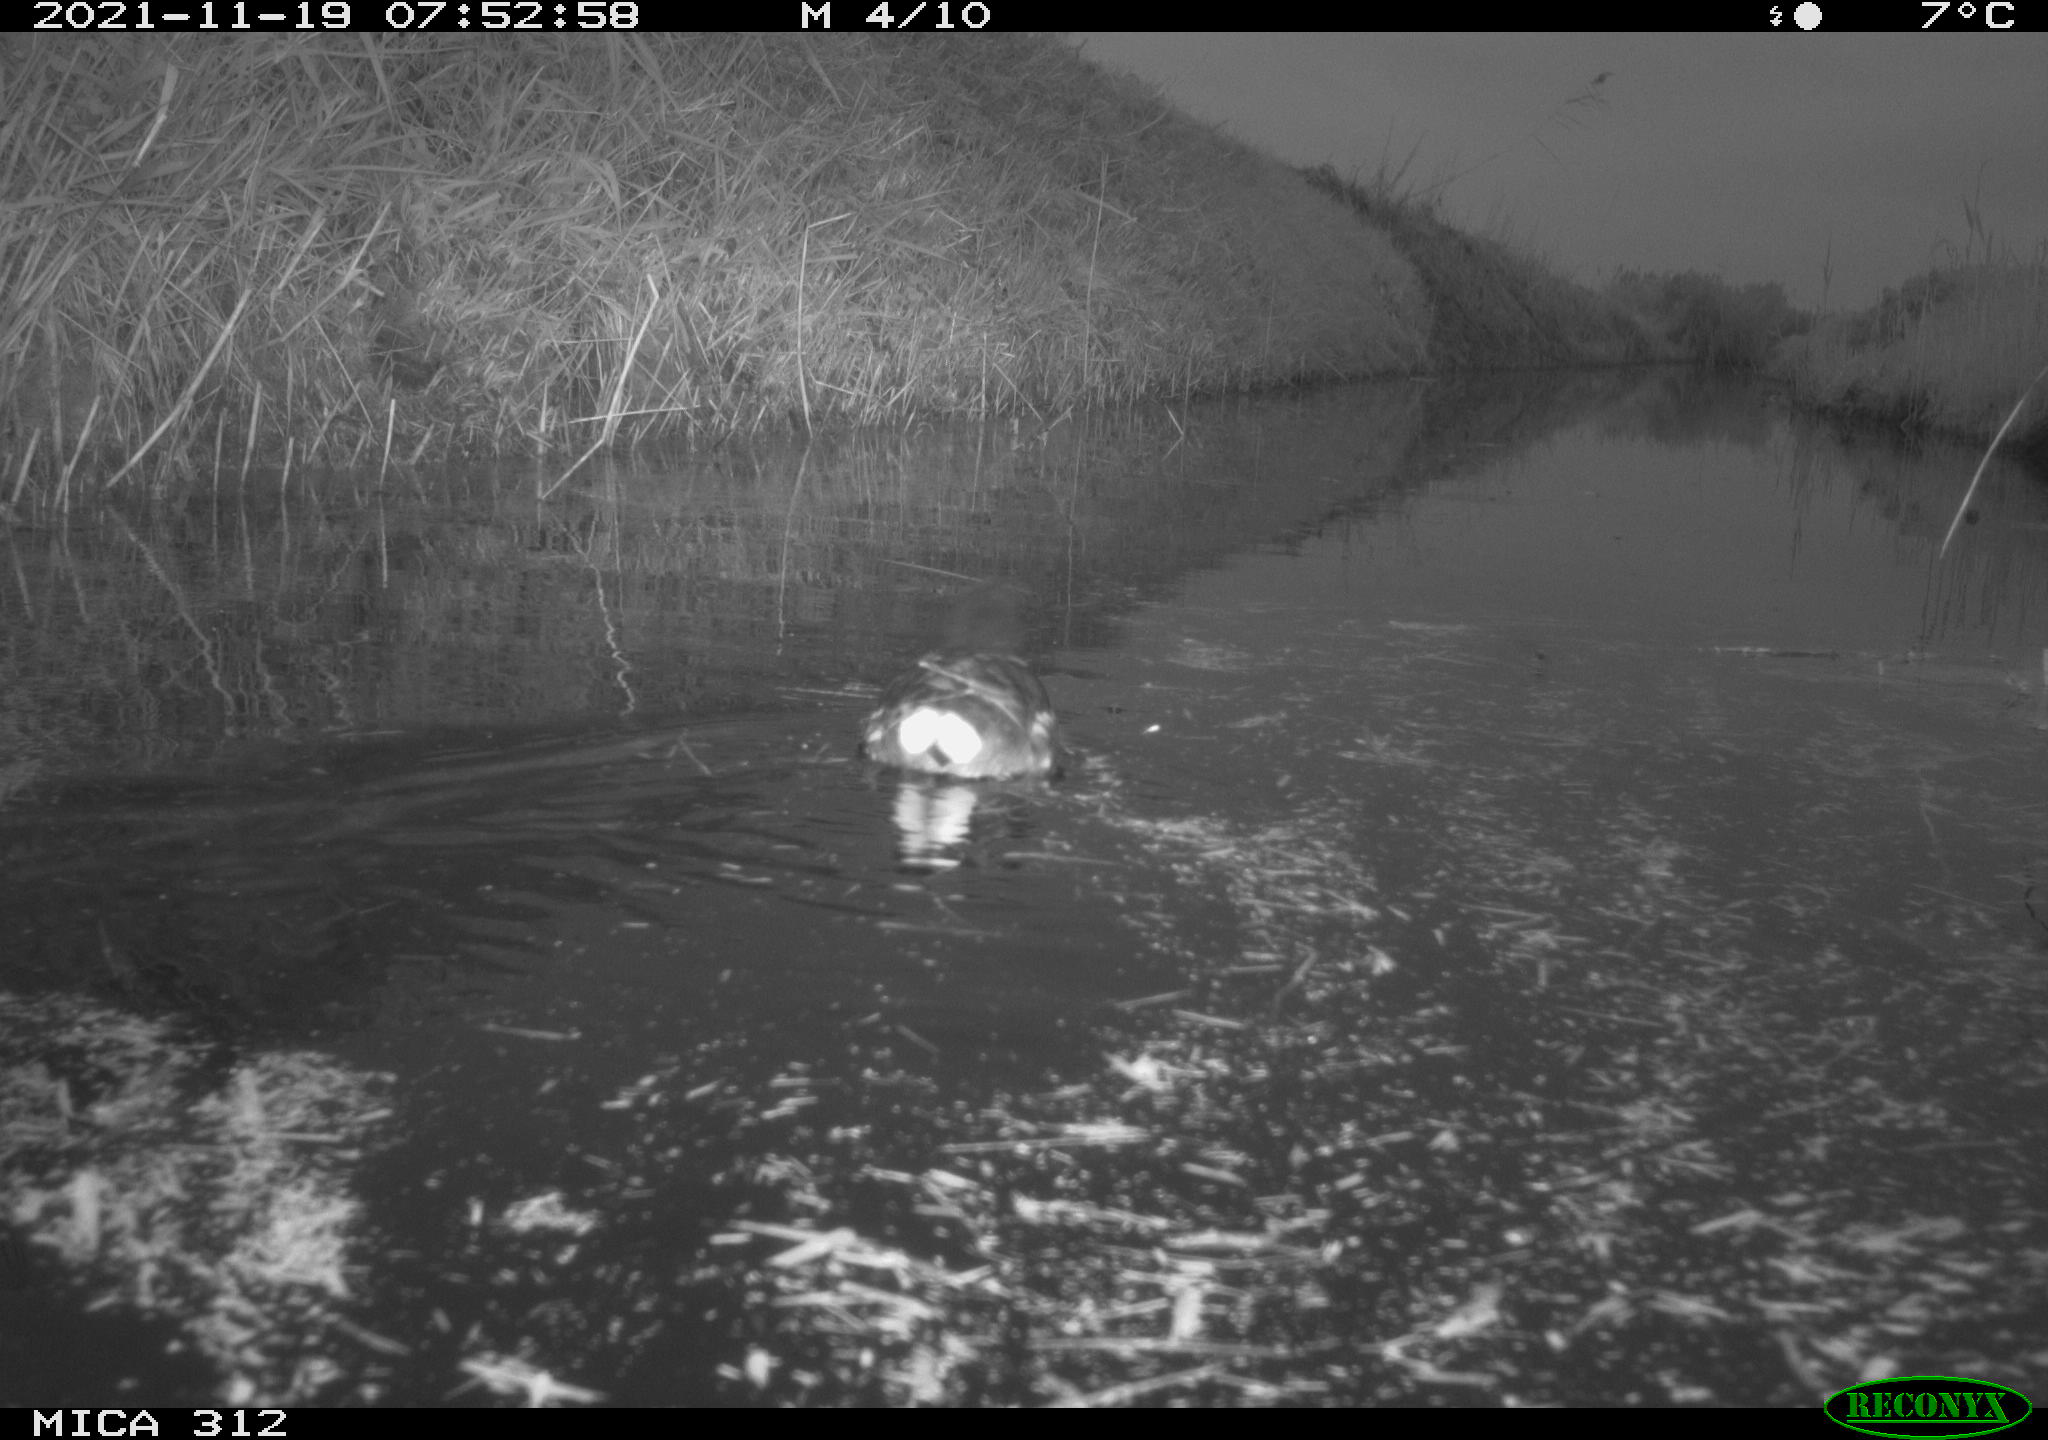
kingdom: Animalia
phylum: Chordata
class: Aves
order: Anseriformes
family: Anatidae
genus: Anas
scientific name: Anas
